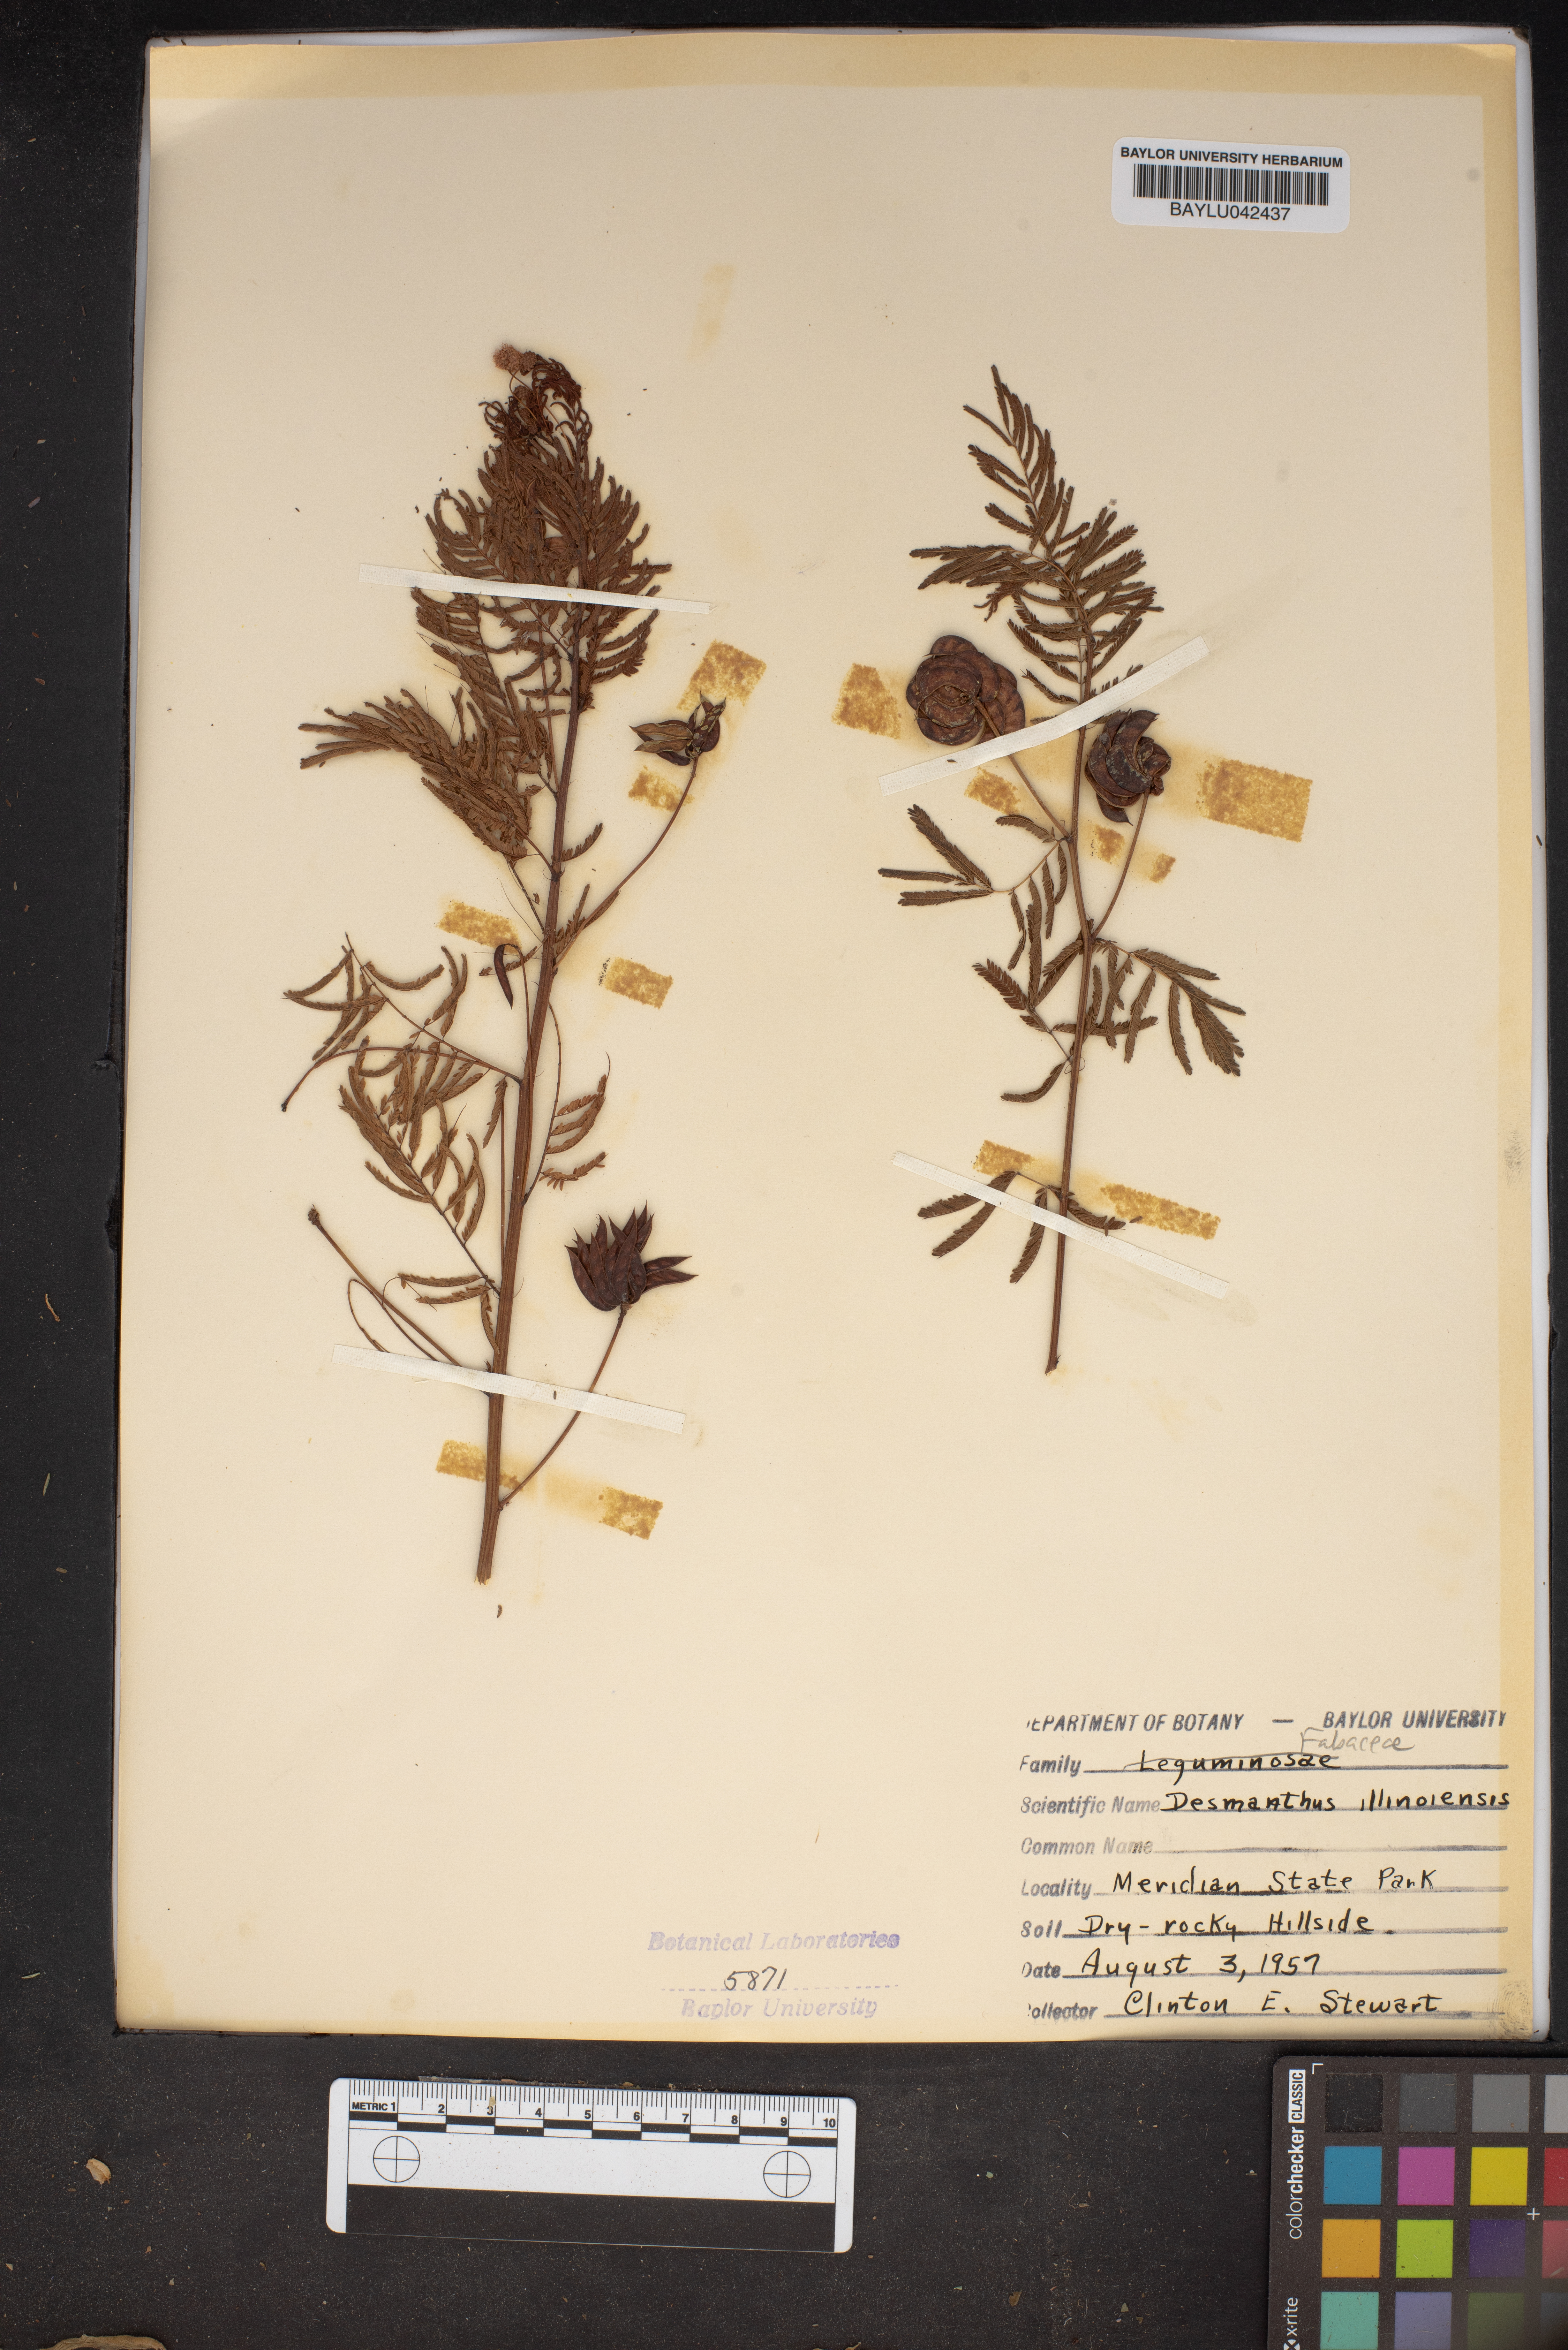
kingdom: Plantae
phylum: Tracheophyta
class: Magnoliopsida
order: Fabales
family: Fabaceae
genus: Desmanthus
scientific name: Desmanthus illinoensis
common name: Illinois bundle-flower
